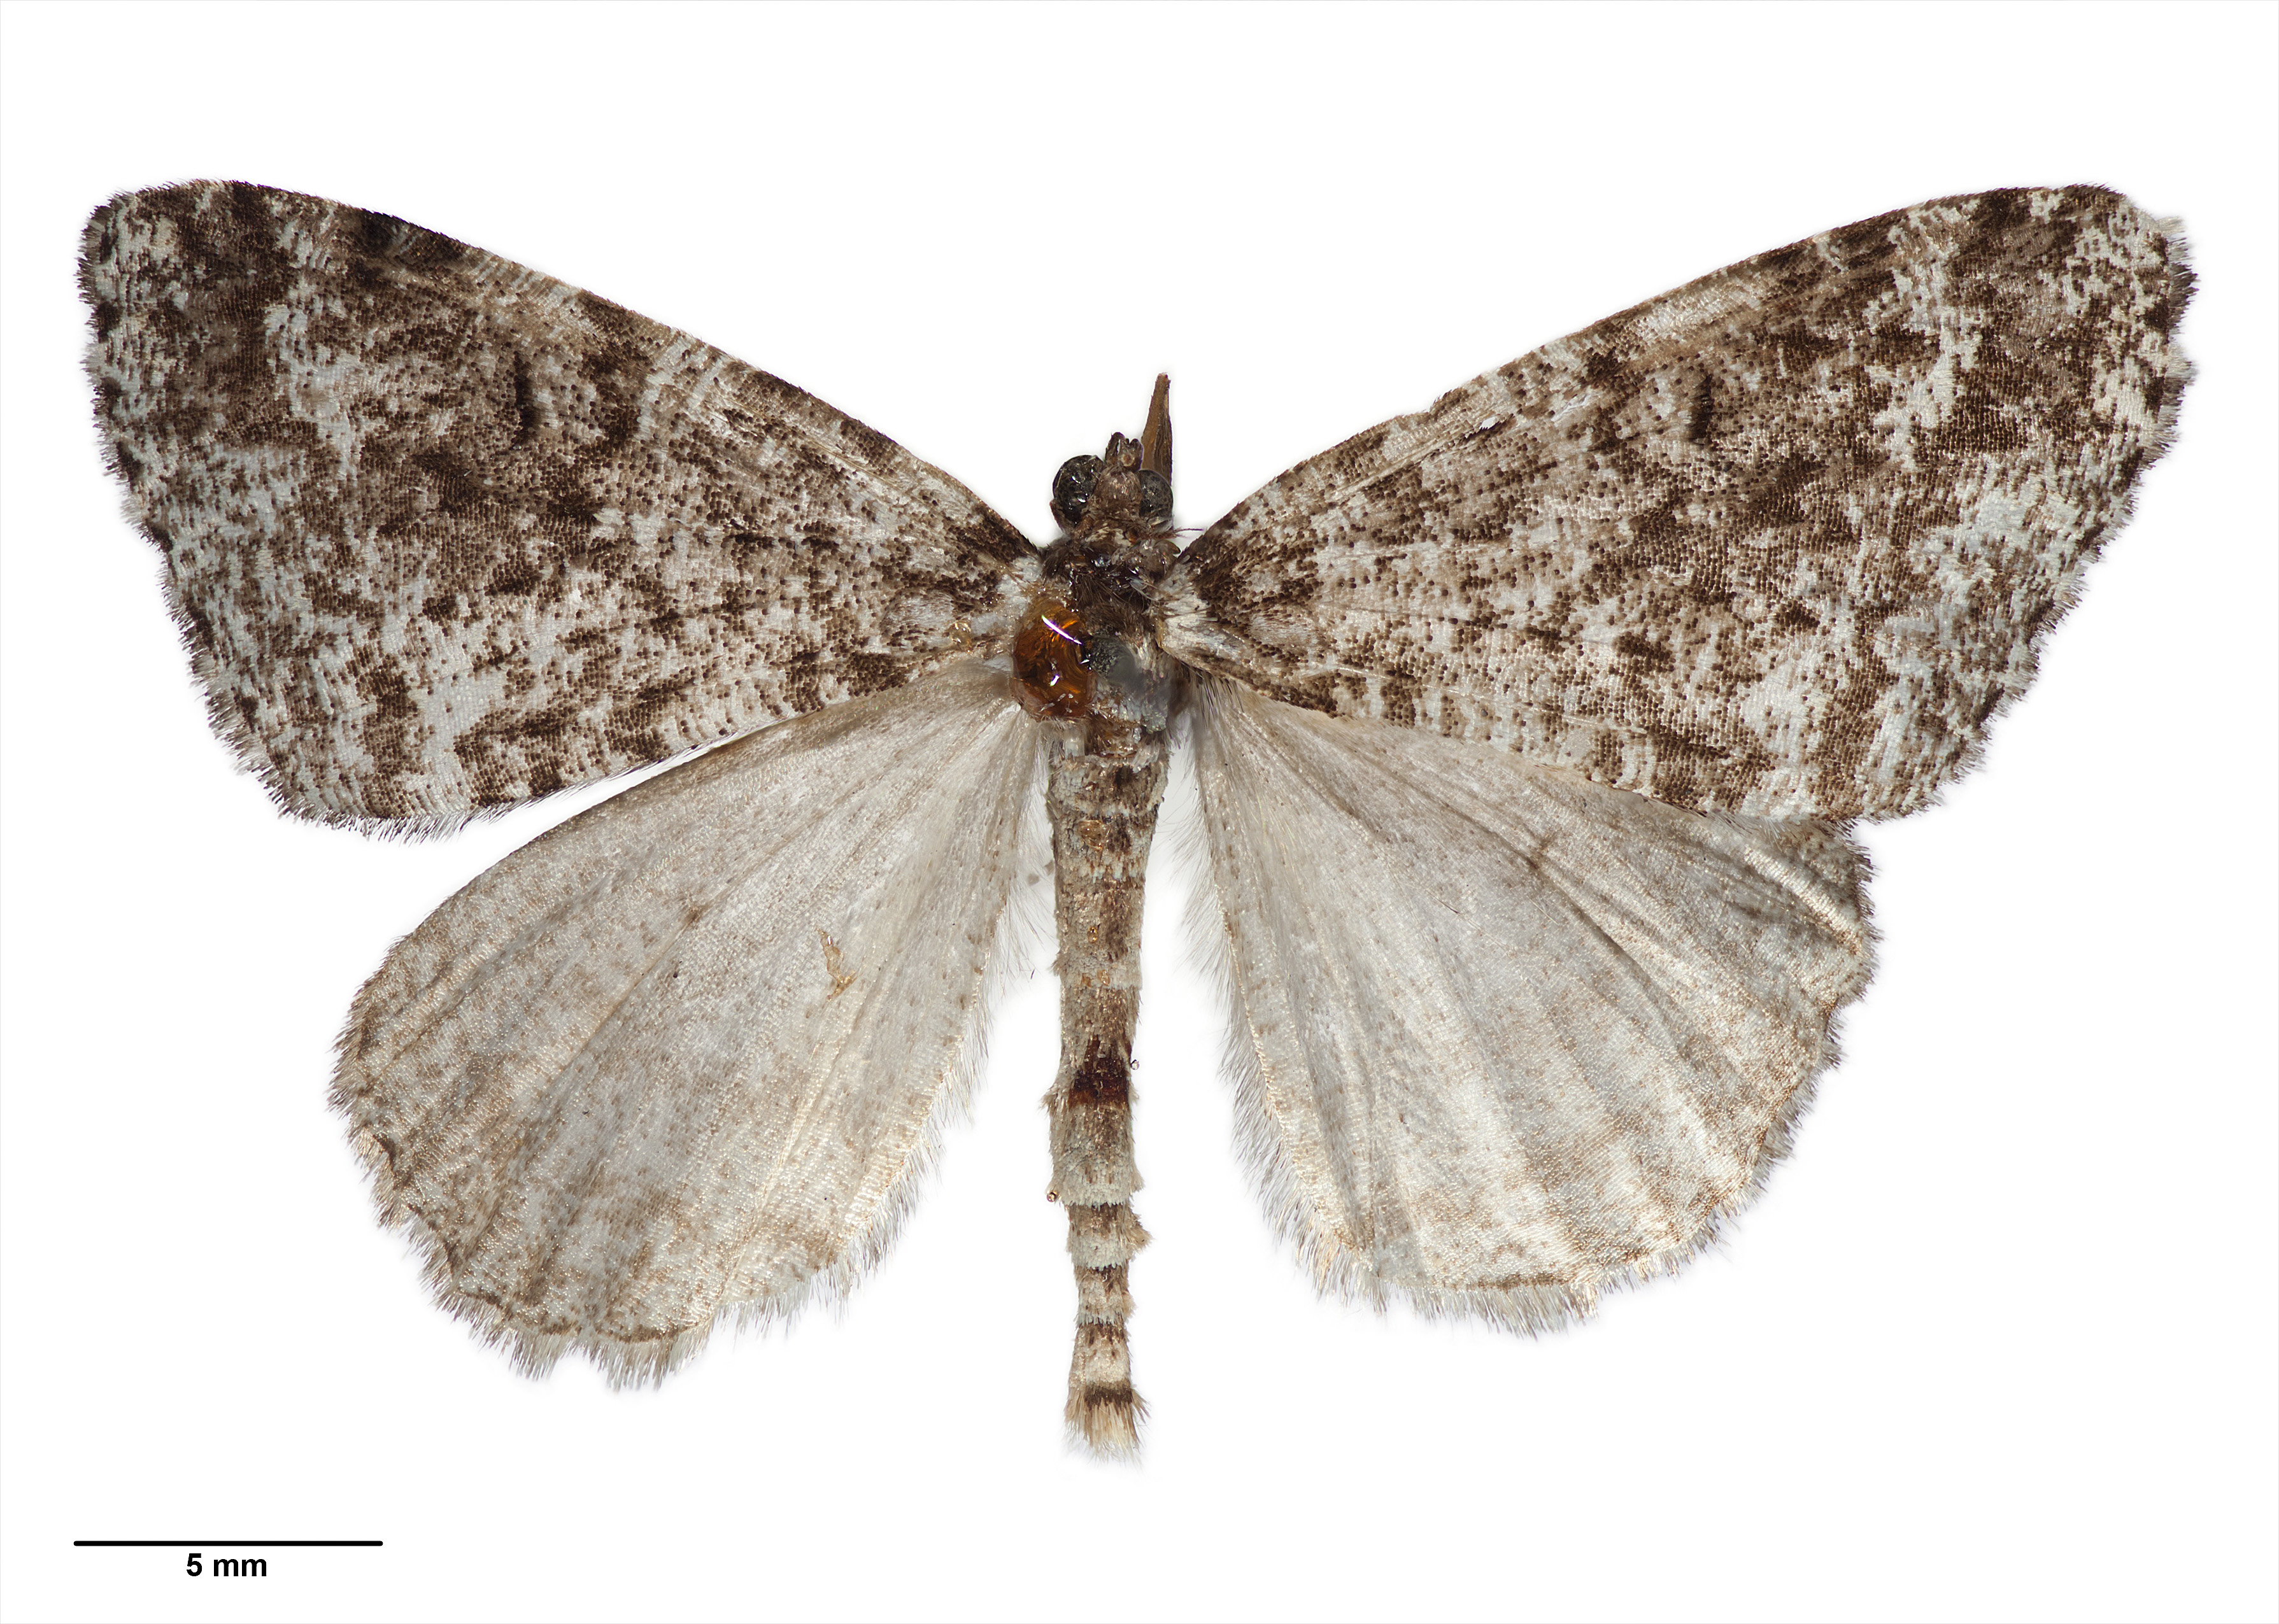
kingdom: Animalia
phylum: Arthropoda
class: Insecta
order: Lepidoptera
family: Geometridae
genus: Pseudocoremia
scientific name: Pseudocoremia monacha
